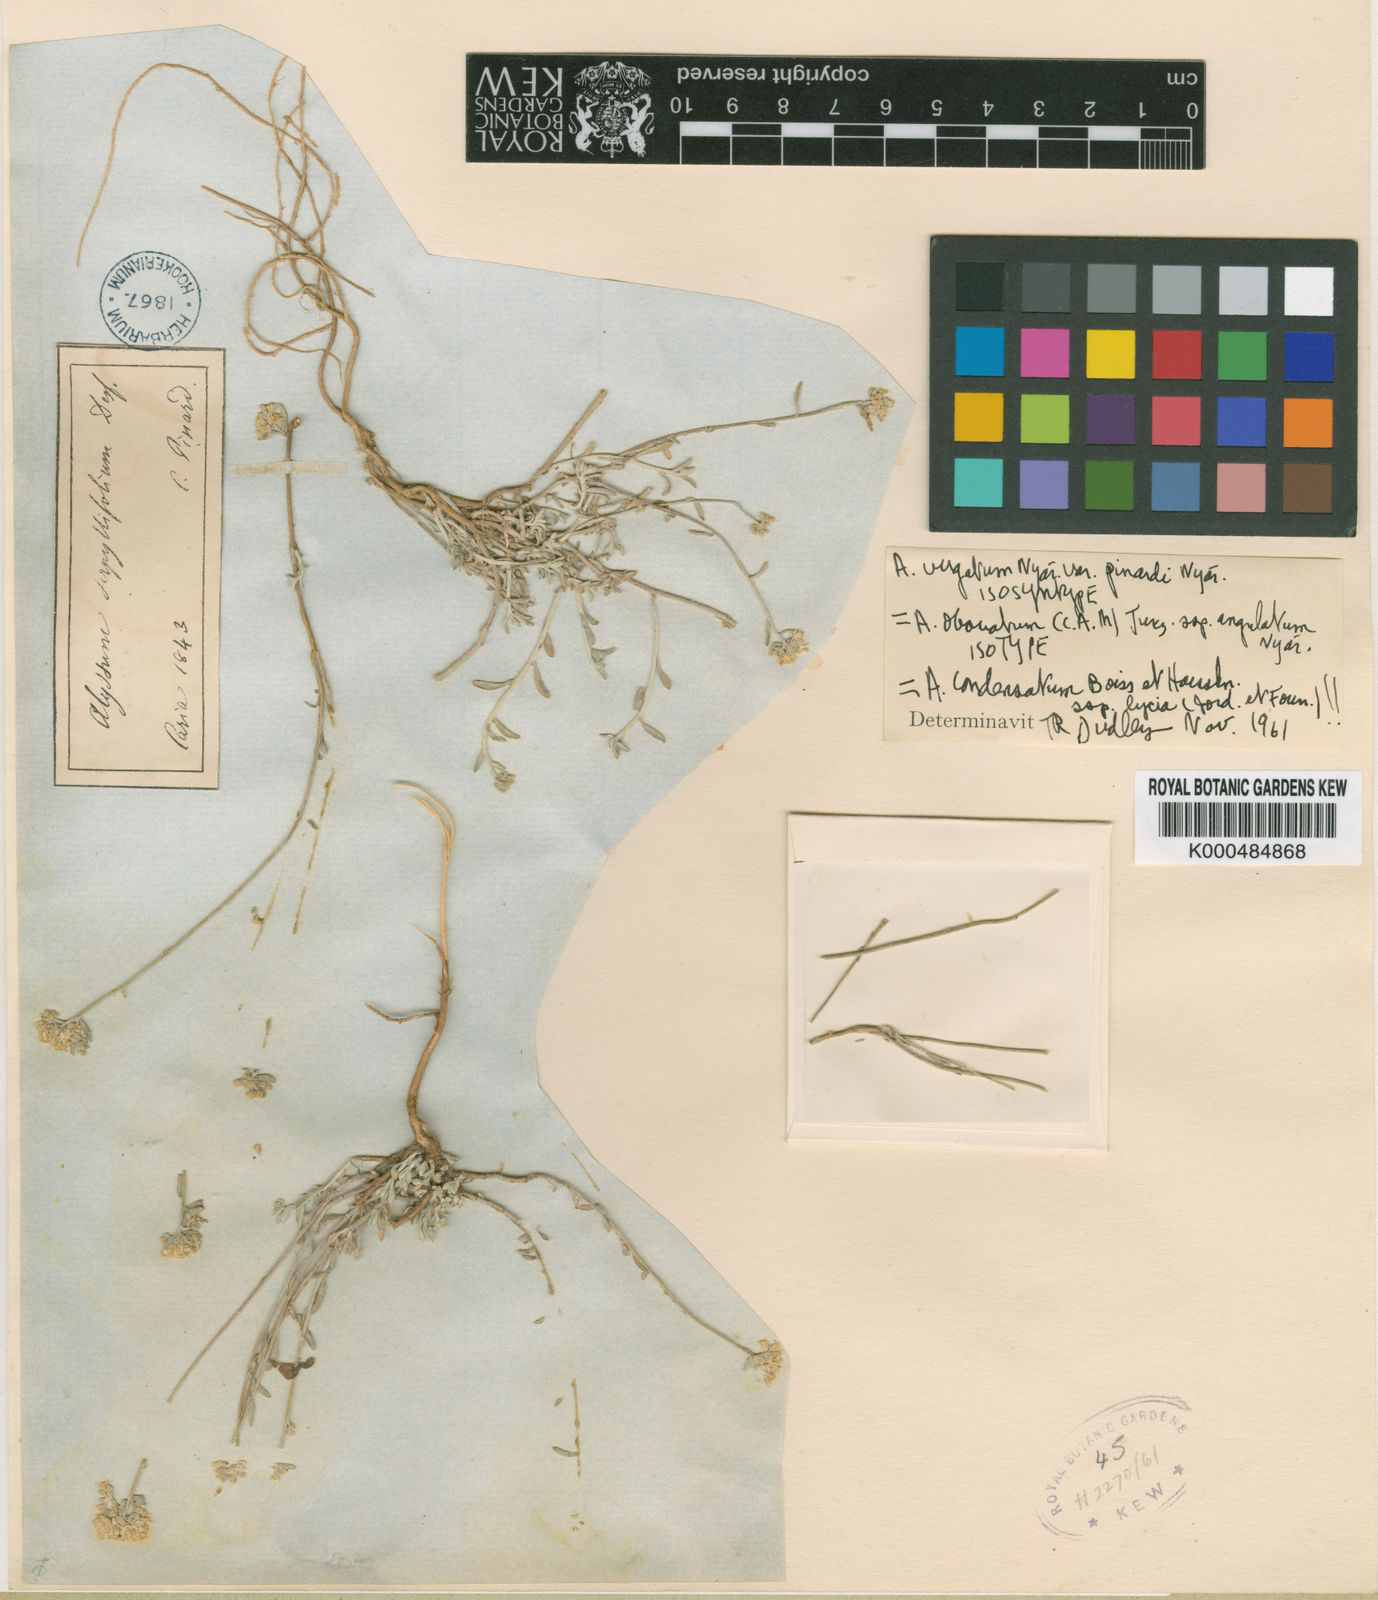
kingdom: Plantae
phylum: Tracheophyta
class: Magnoliopsida
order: Brassicales
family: Brassicaceae
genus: Odontarrhena
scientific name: Odontarrhena condensata
